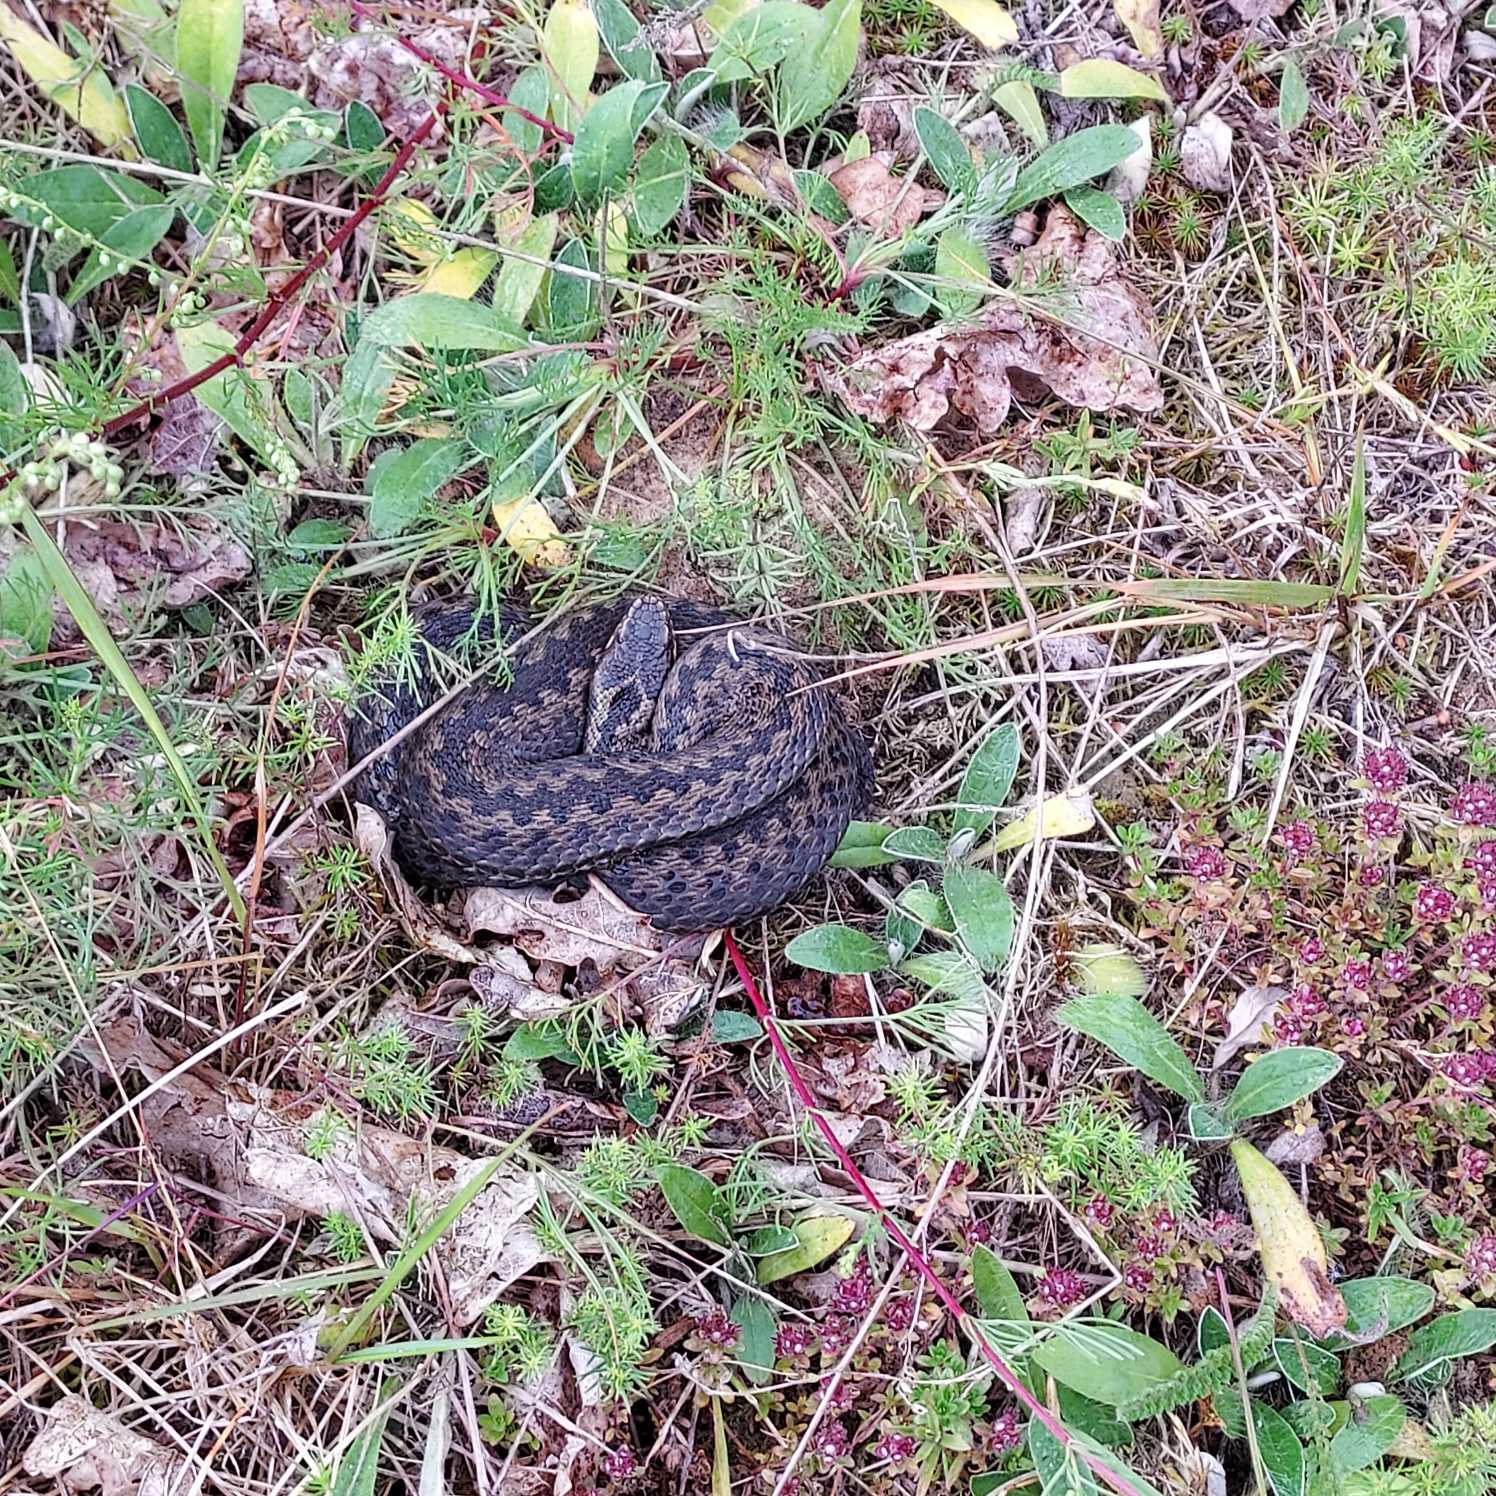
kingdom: Animalia
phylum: Chordata
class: Squamata
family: Viperidae
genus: Vipera
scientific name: Vipera berus
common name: Hugorm
